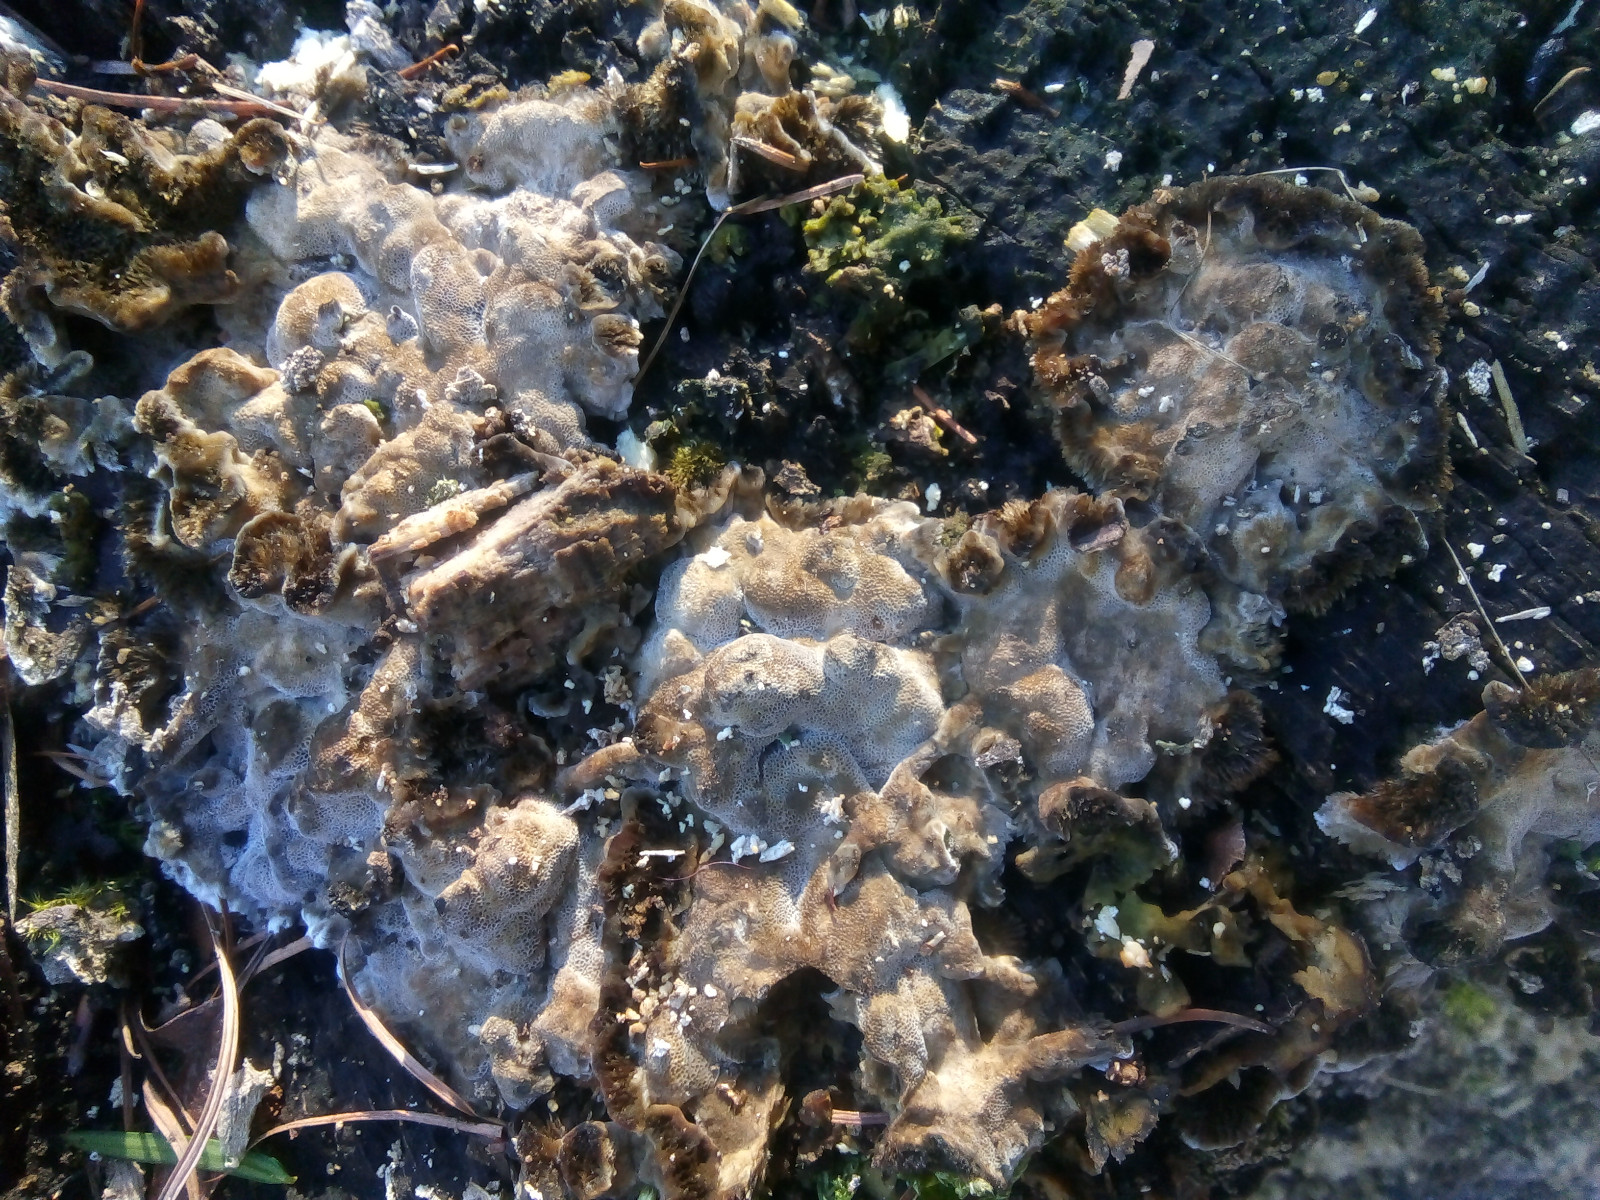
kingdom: Fungi
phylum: Basidiomycota
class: Agaricomycetes
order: Polyporales
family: Phanerochaetaceae
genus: Bjerkandera
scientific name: Bjerkandera adusta
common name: sveden sodporesvamp
